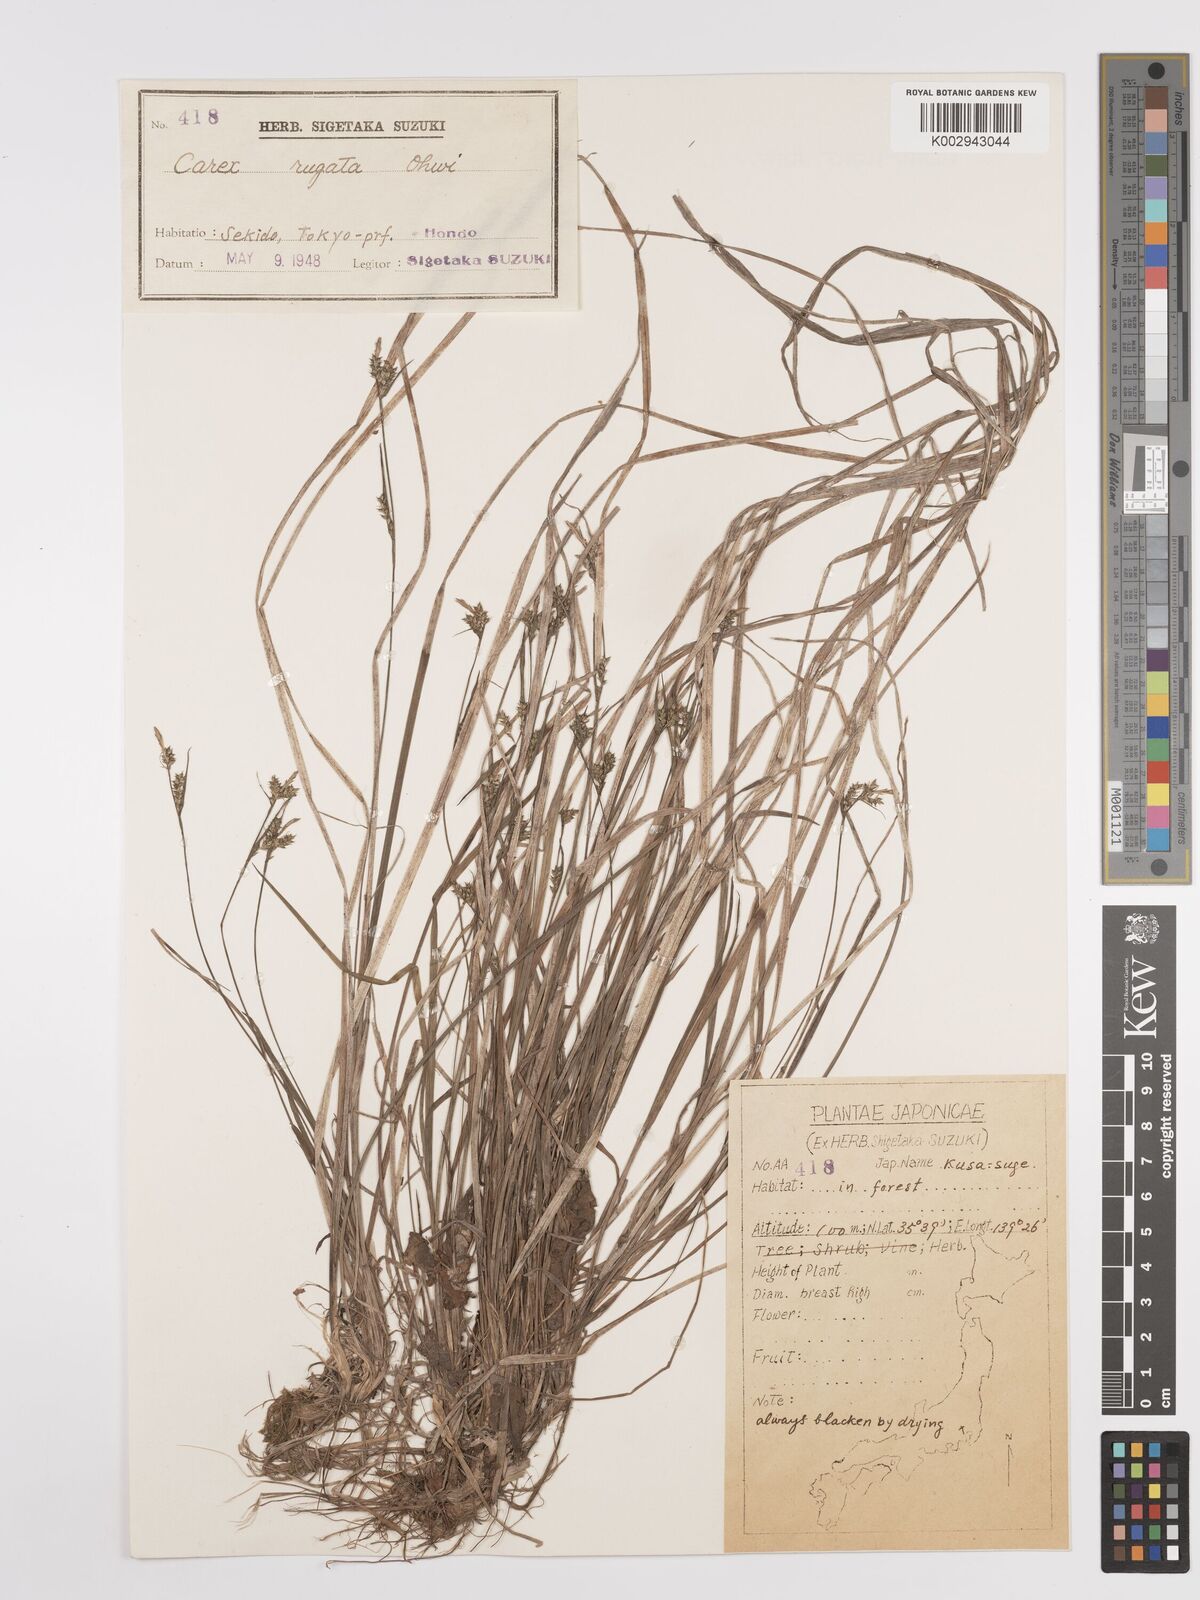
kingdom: Plantae
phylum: Tracheophyta
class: Liliopsida
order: Poales
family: Cyperaceae
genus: Carex
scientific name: Carex rugata
